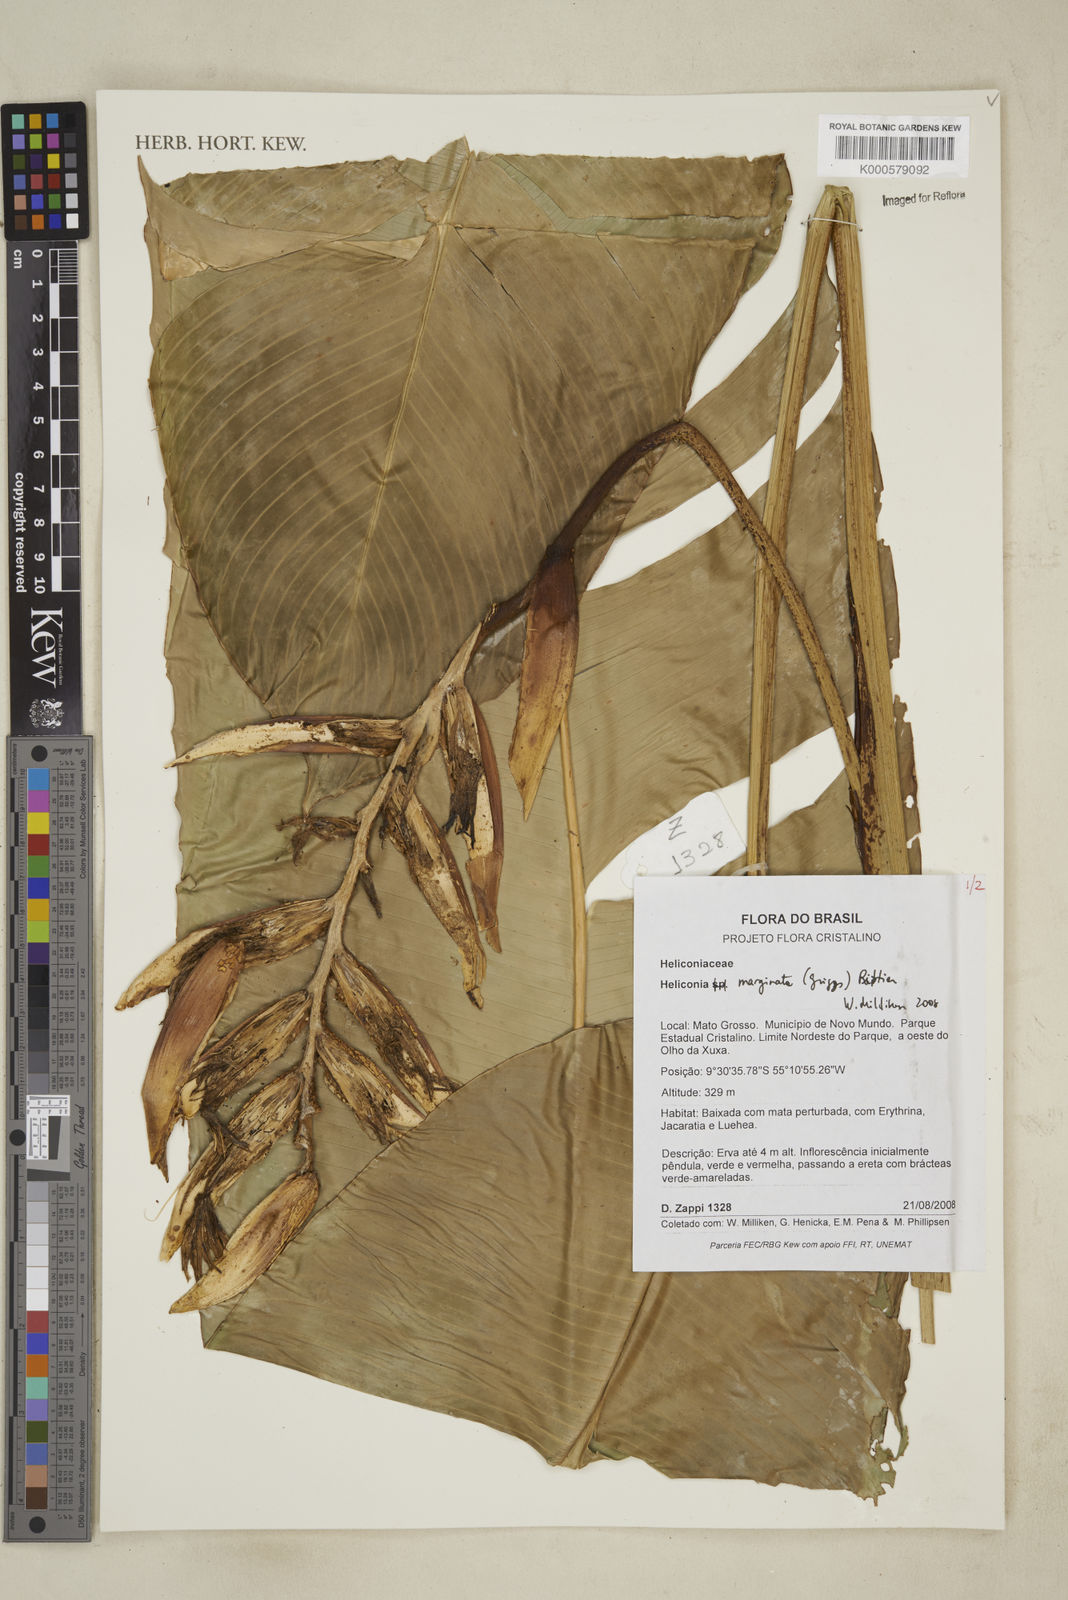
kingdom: Plantae
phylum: Tracheophyta
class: Liliopsida
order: Zingiberales
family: Heliconiaceae
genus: Heliconia
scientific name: Heliconia marginata
